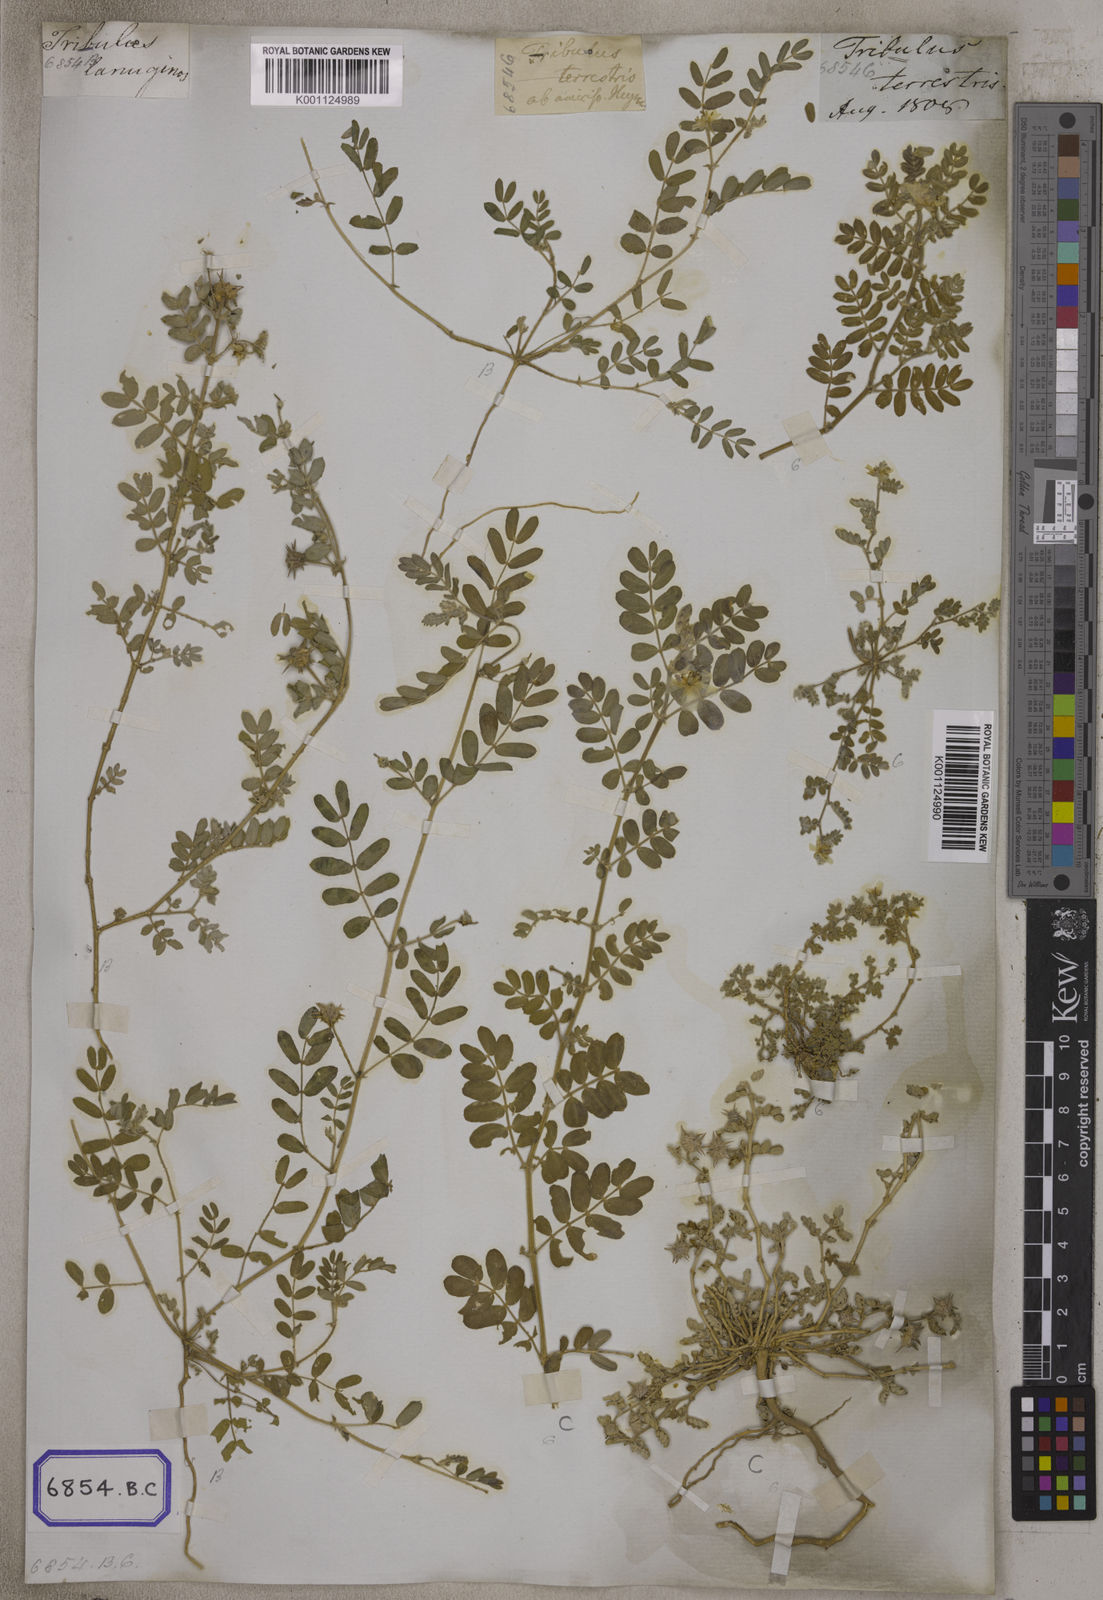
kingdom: Plantae
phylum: Tracheophyta
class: Magnoliopsida
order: Zygophyllales
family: Zygophyllaceae
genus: Tribulus
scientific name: Tribulus terrestris
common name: Puncturevine
